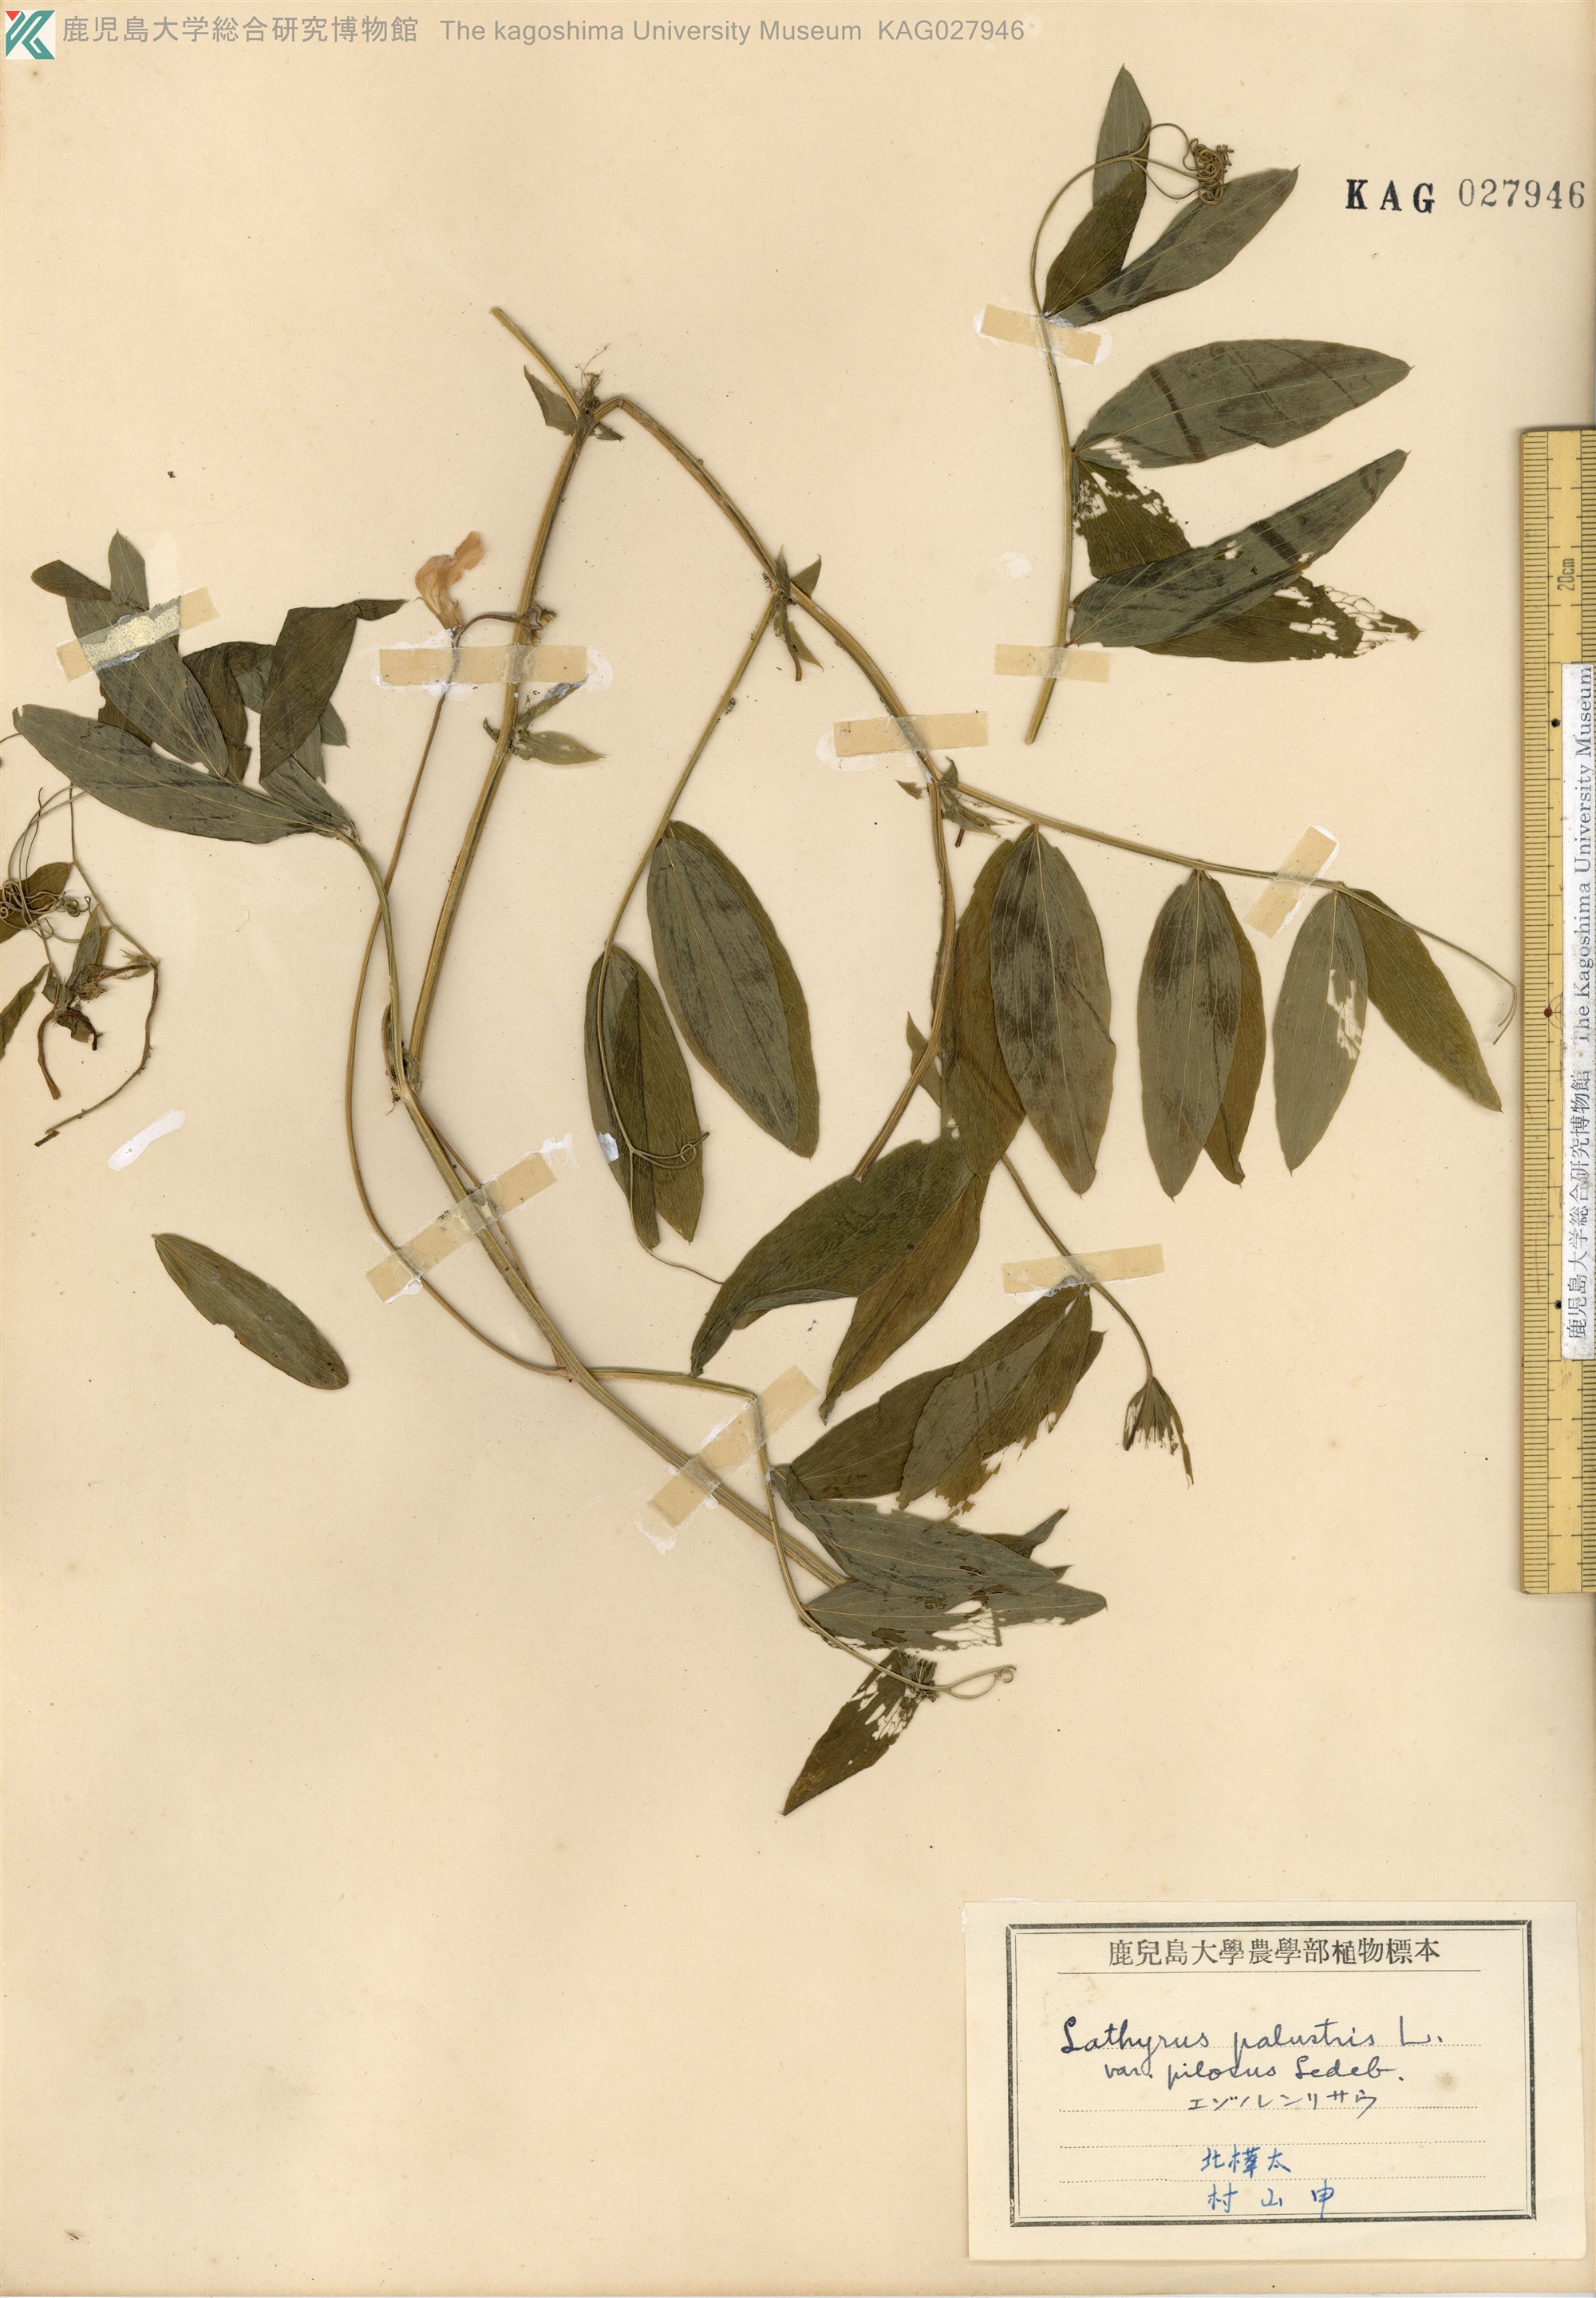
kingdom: Plantae
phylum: Tracheophyta
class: Magnoliopsida
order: Fabales
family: Fabaceae
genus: Lathyrus
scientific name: Lathyrus palustris
